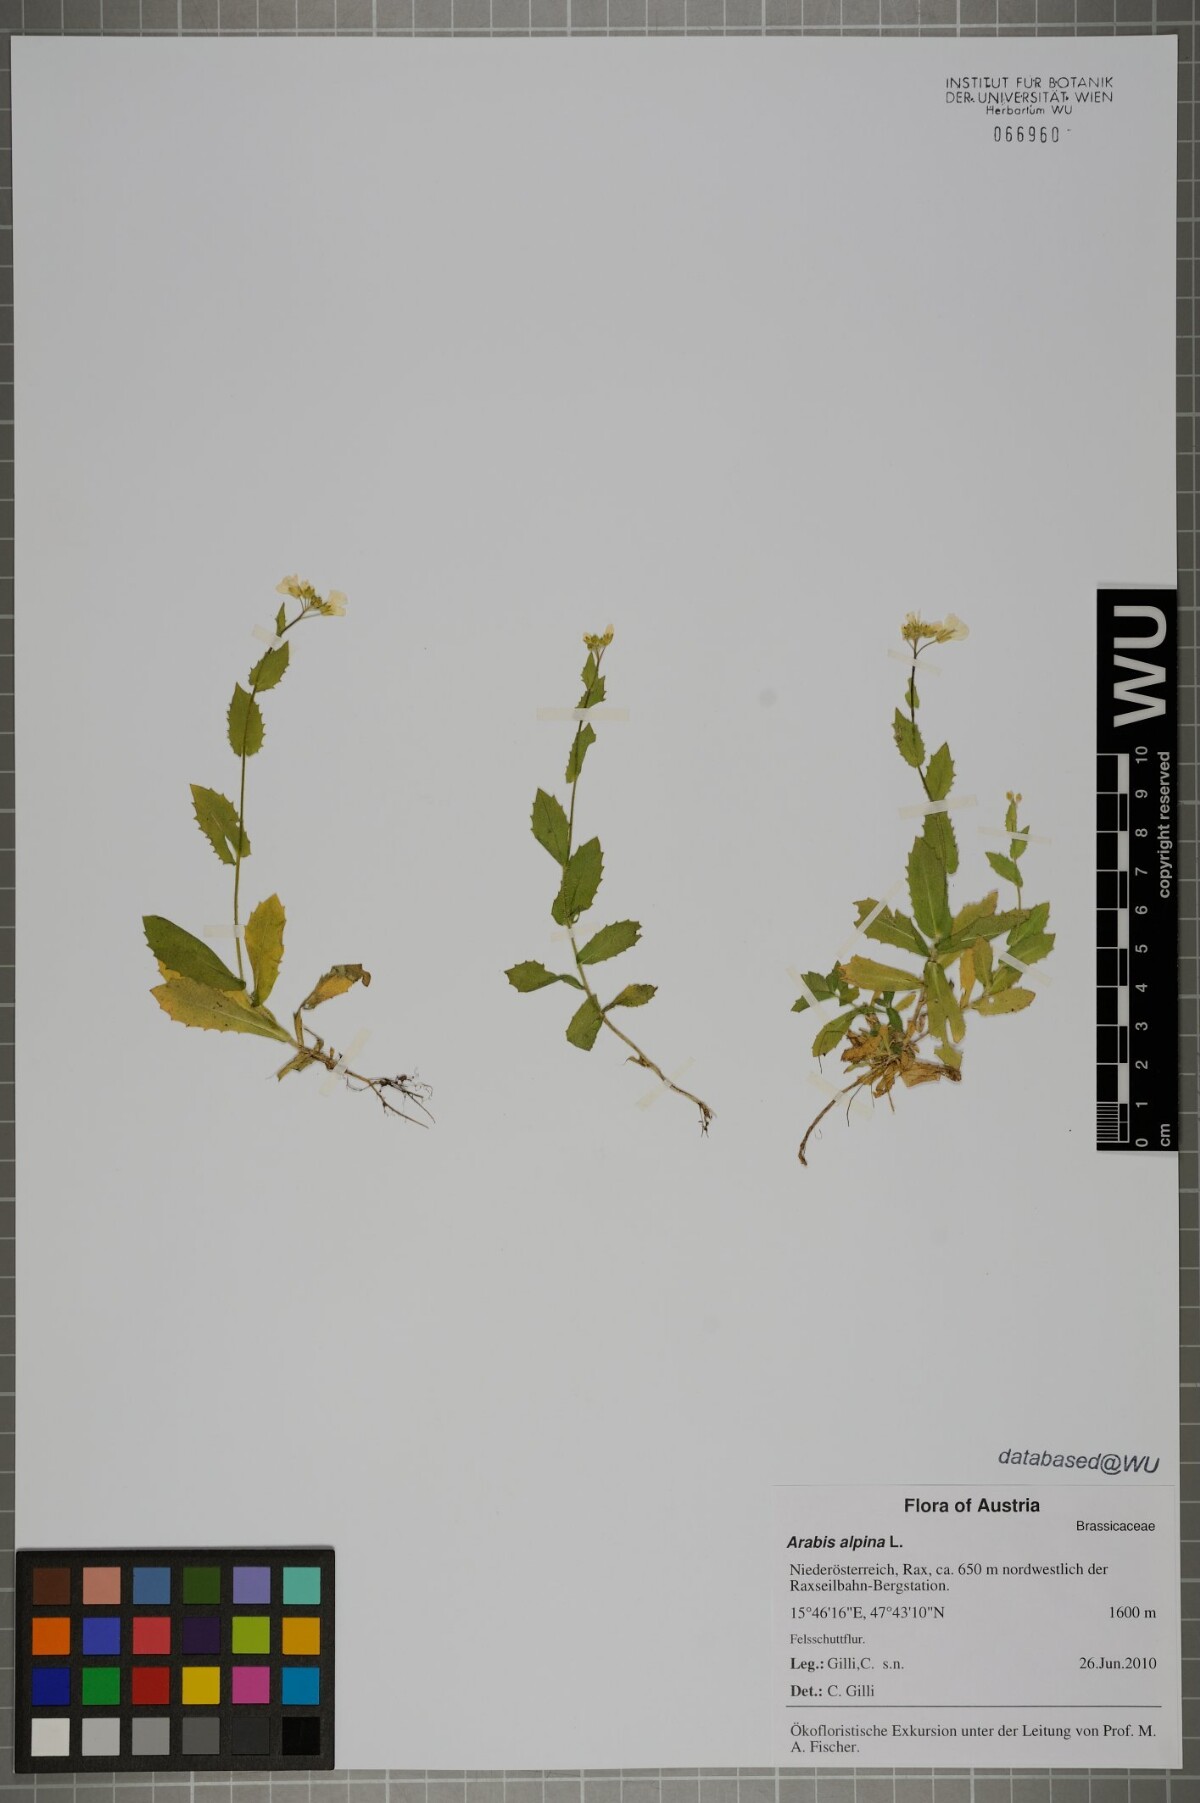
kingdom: Plantae
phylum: Tracheophyta
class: Magnoliopsida
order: Brassicales
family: Brassicaceae
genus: Arabis
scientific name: Arabis alpina
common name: Alpine rock-cress
